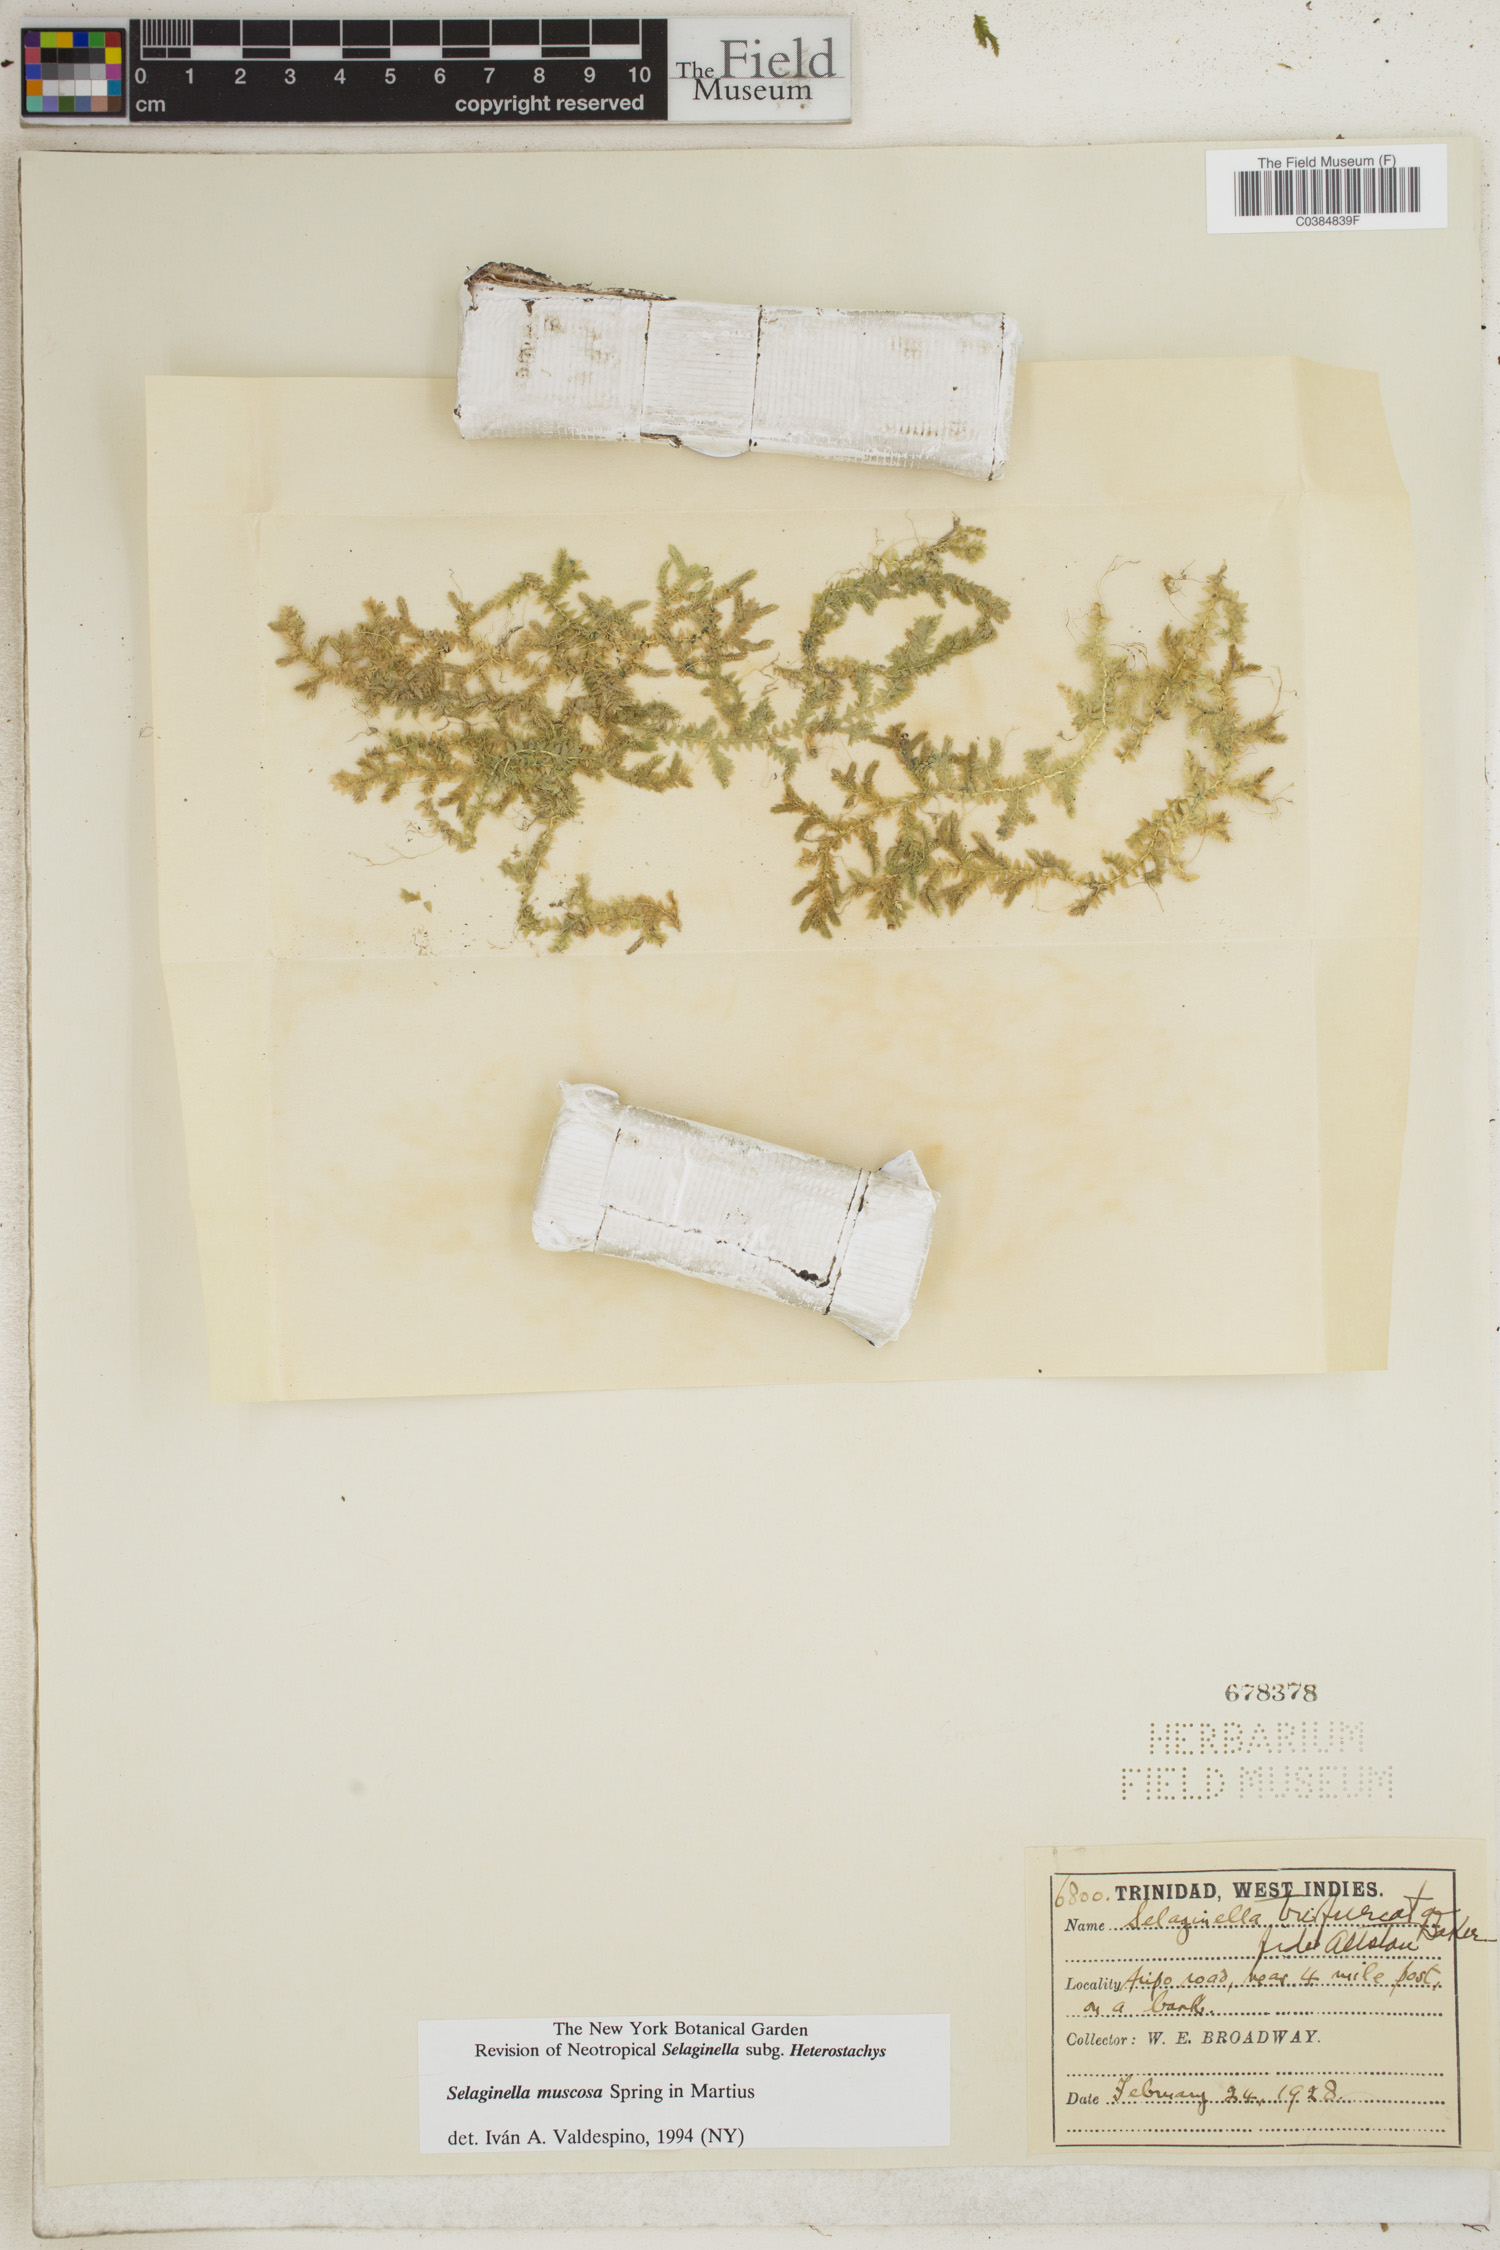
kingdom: Plantae
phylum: Tracheophyta
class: Lycopodiopsida
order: Selaginellales
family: Selaginellaceae
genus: Selaginella
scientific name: Selaginella muscosa
